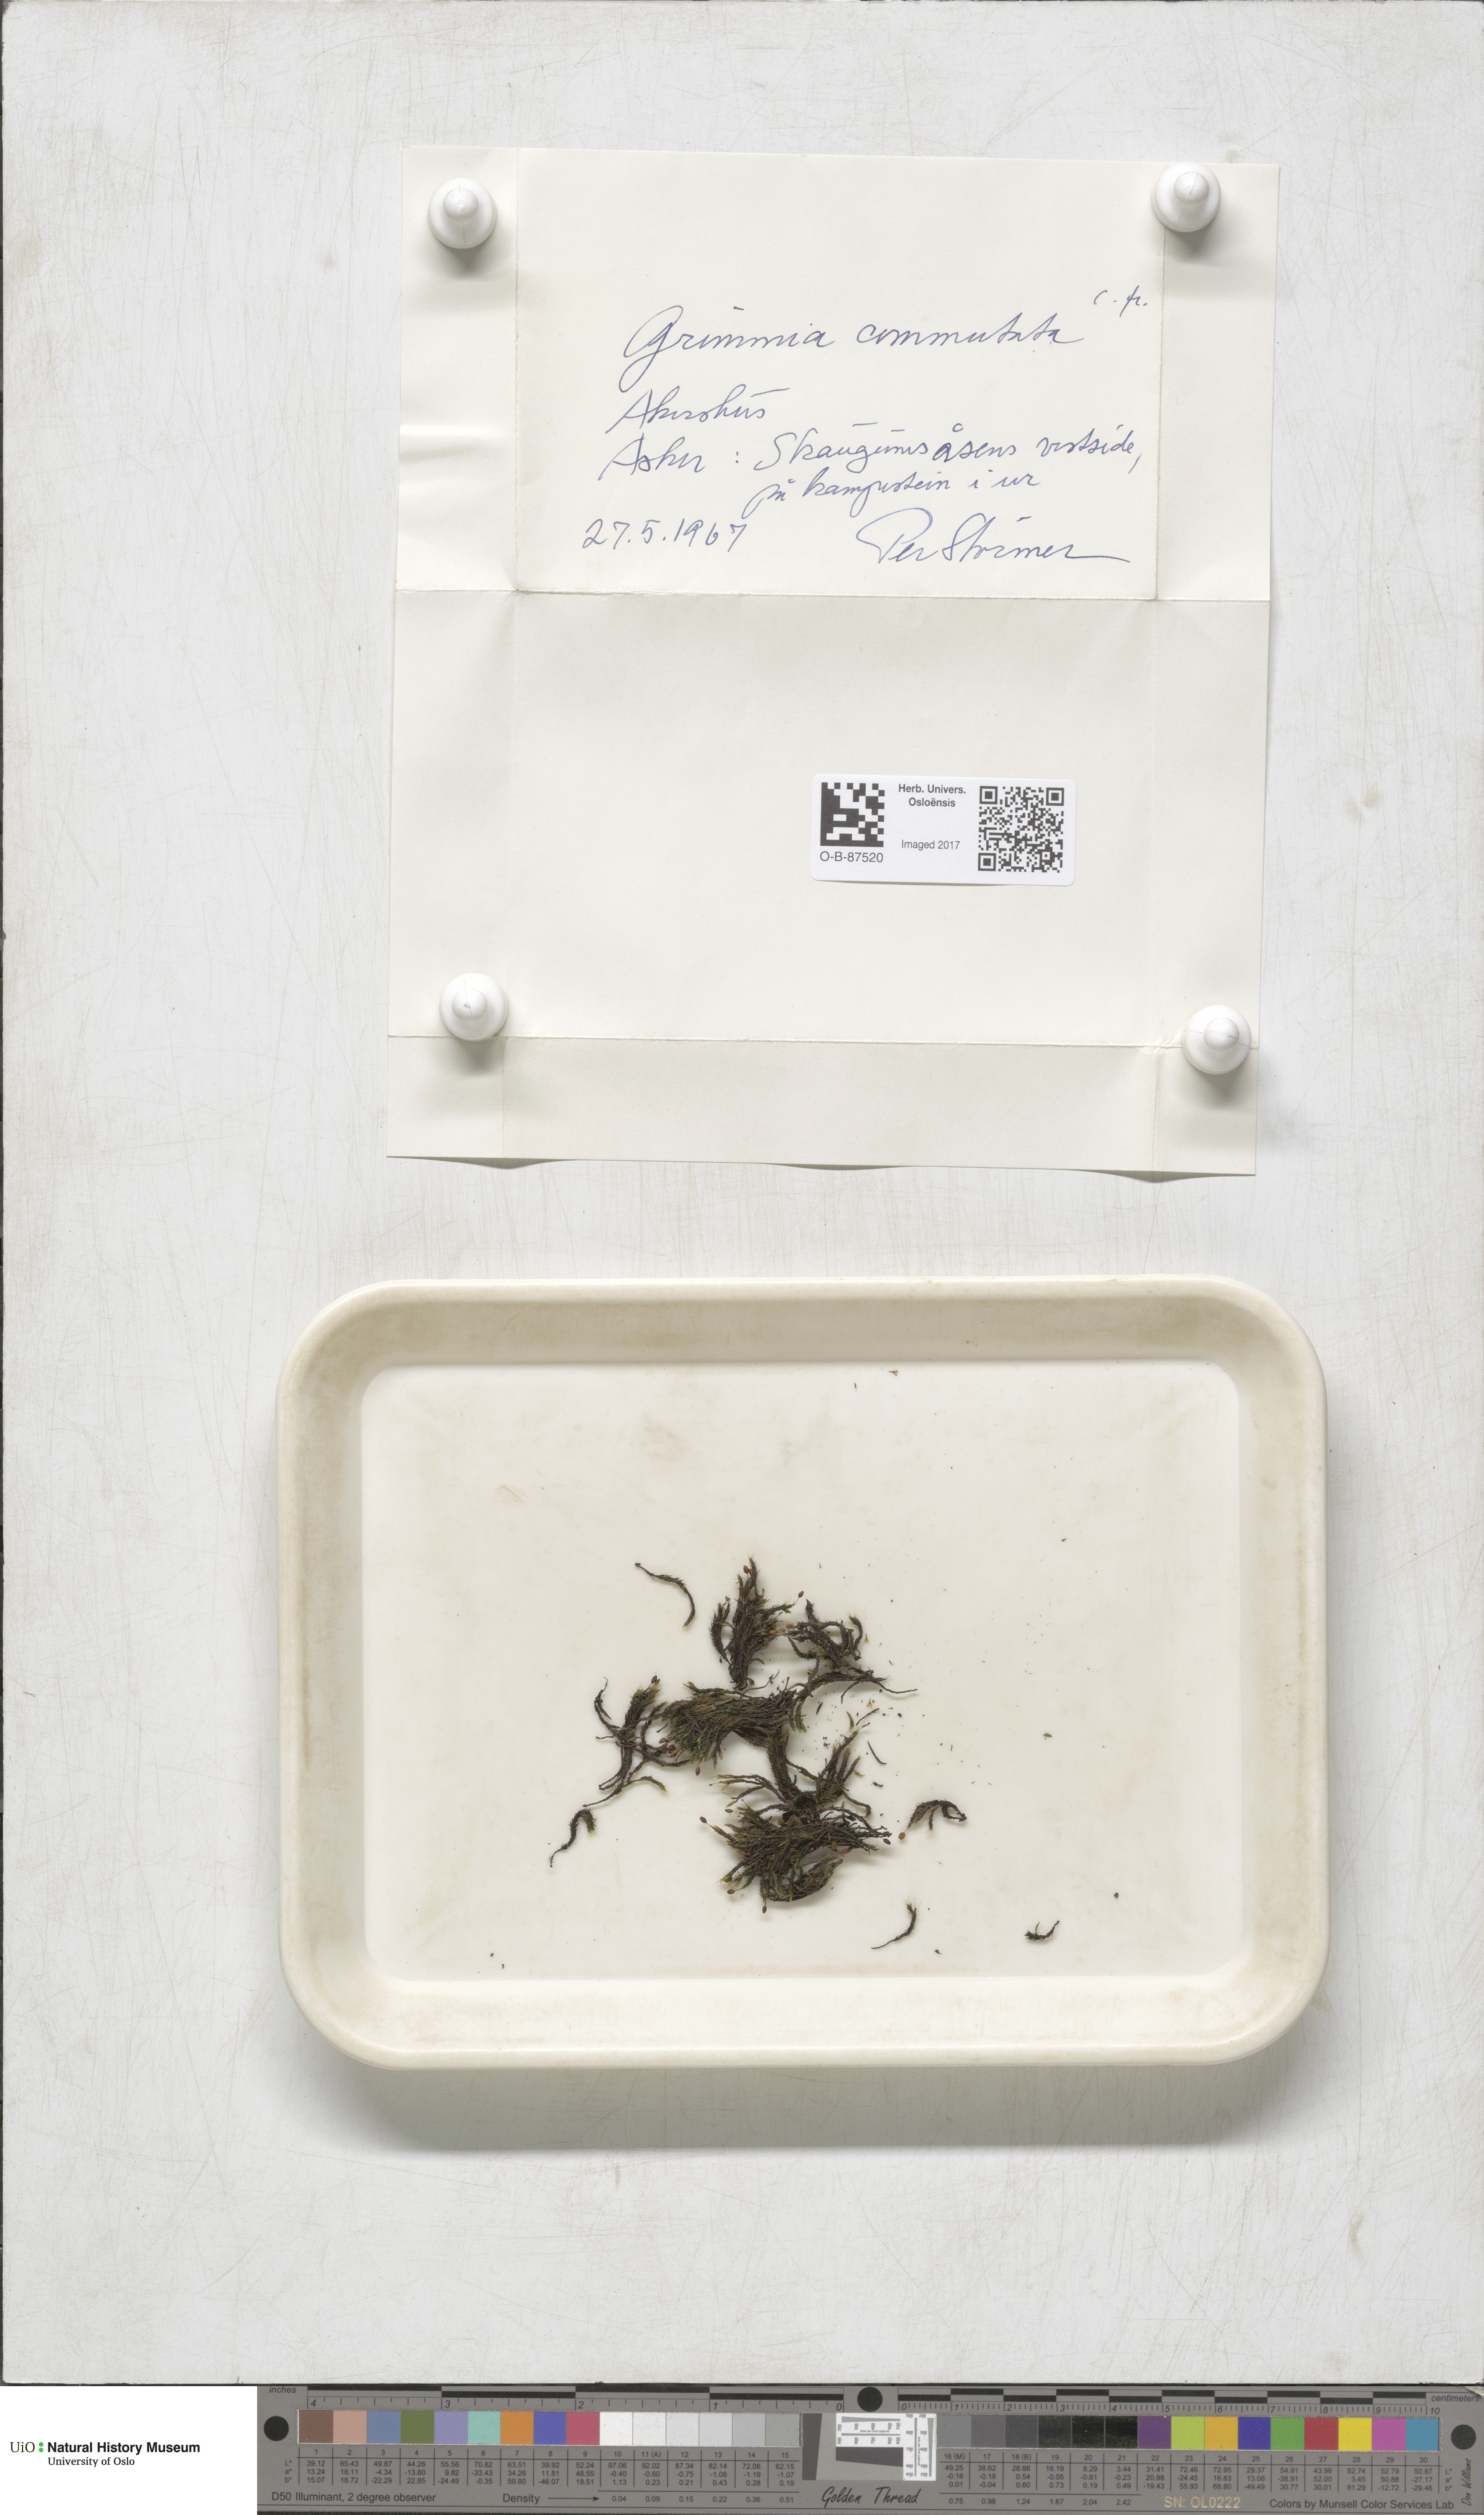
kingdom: Plantae
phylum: Bryophyta
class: Bryopsida
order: Grimmiales
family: Grimmiaceae
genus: Grimmia
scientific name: Grimmia ovalis
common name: Oval grimmia
